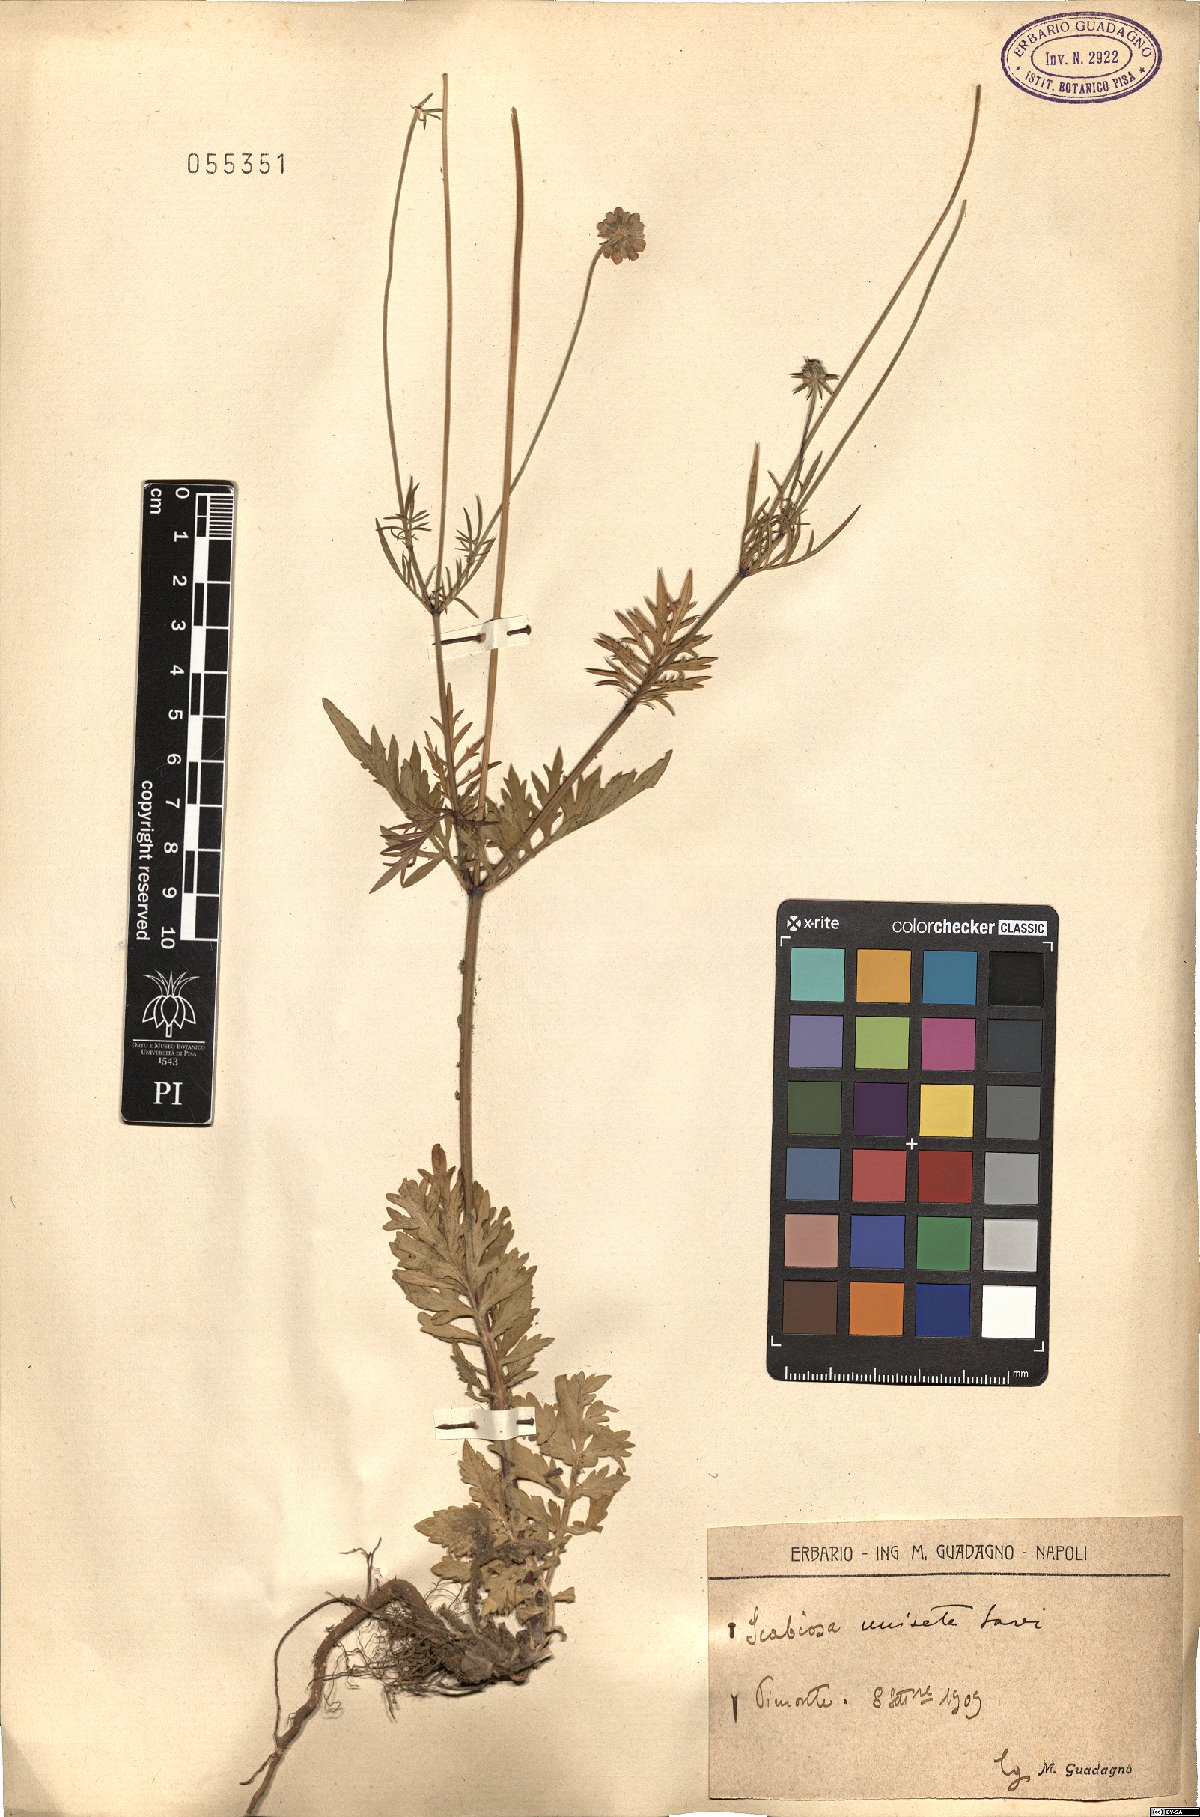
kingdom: Plantae
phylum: Tracheophyta
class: Magnoliopsida
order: Dipsacales
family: Caprifoliaceae
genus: Scabiosa
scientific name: Scabiosa columbaria
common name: Small scabious
